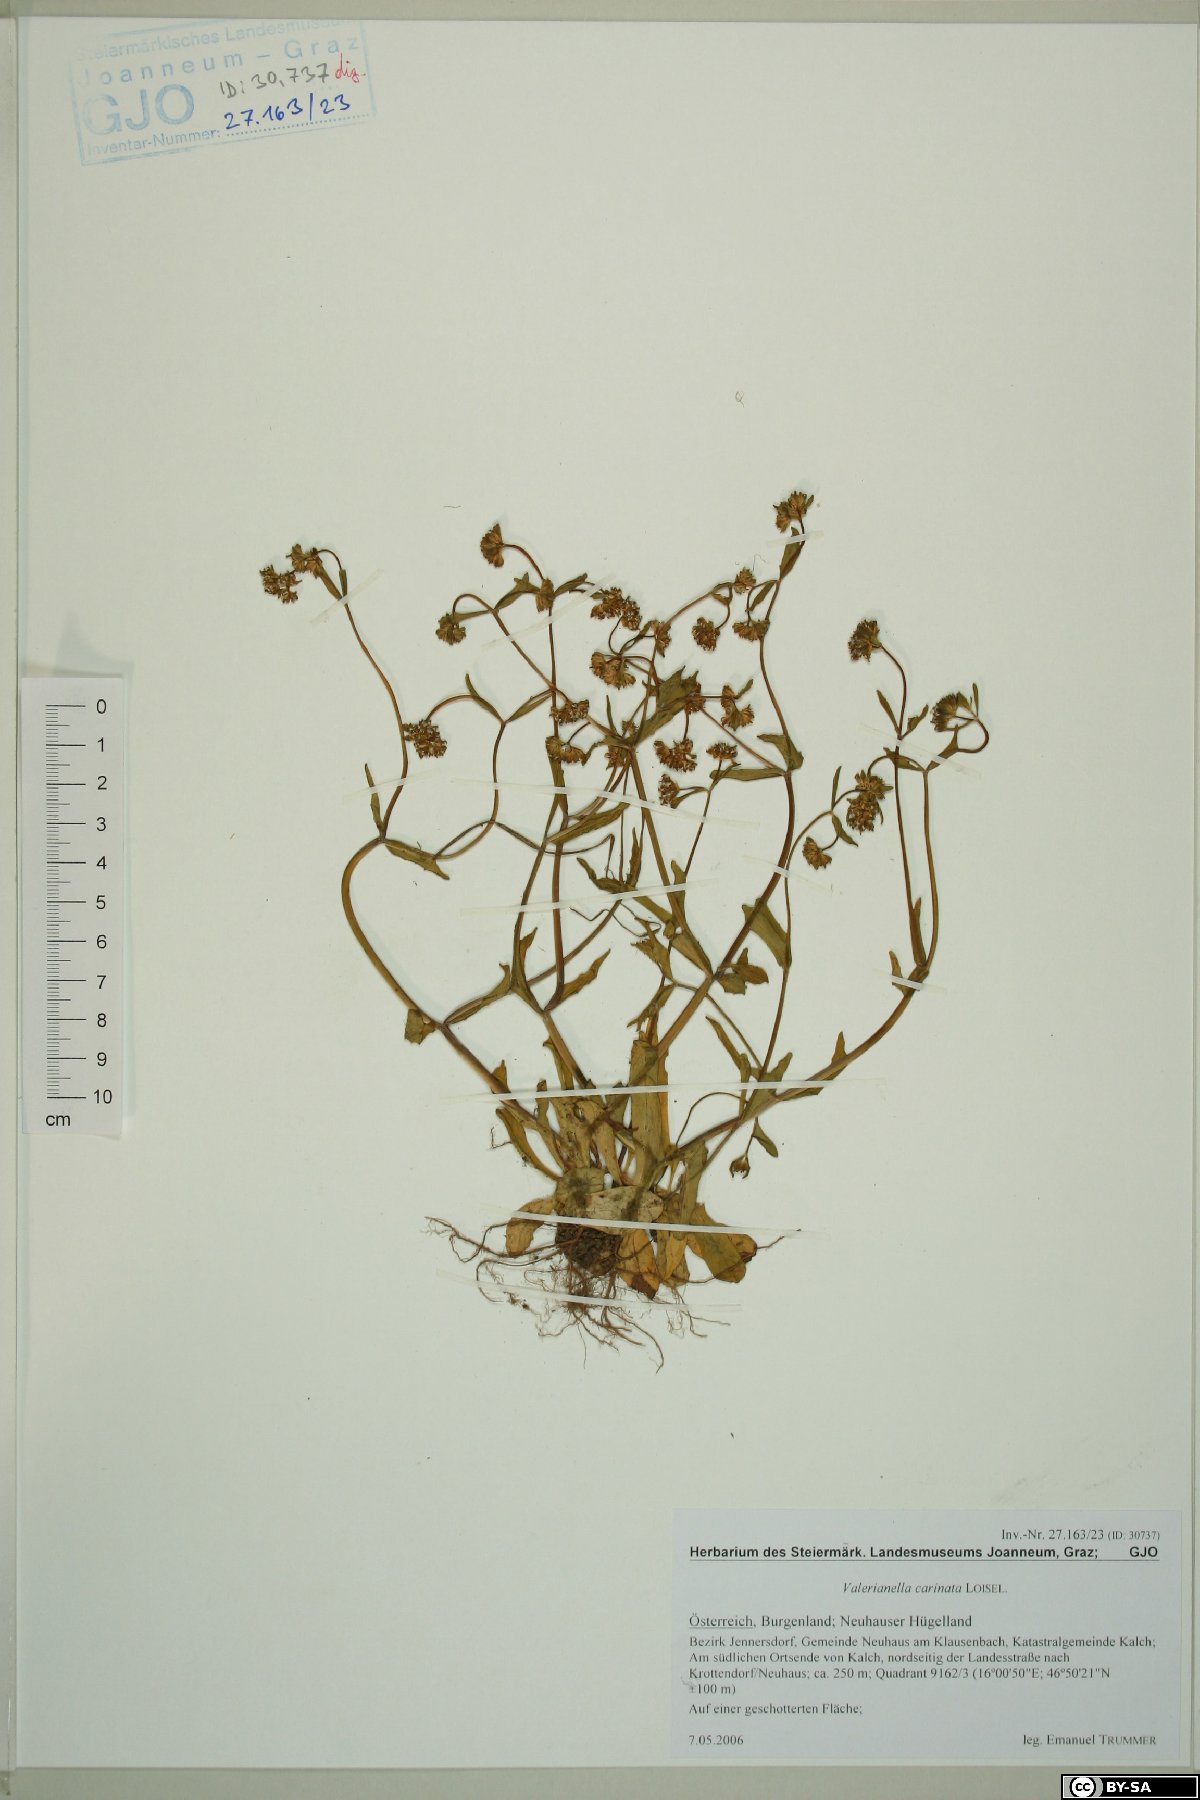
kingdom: Plantae
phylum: Tracheophyta
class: Magnoliopsida
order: Dipsacales
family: Caprifoliaceae
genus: Valerianella
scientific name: Valerianella carinata
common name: Keeled-fruited cornsalad
